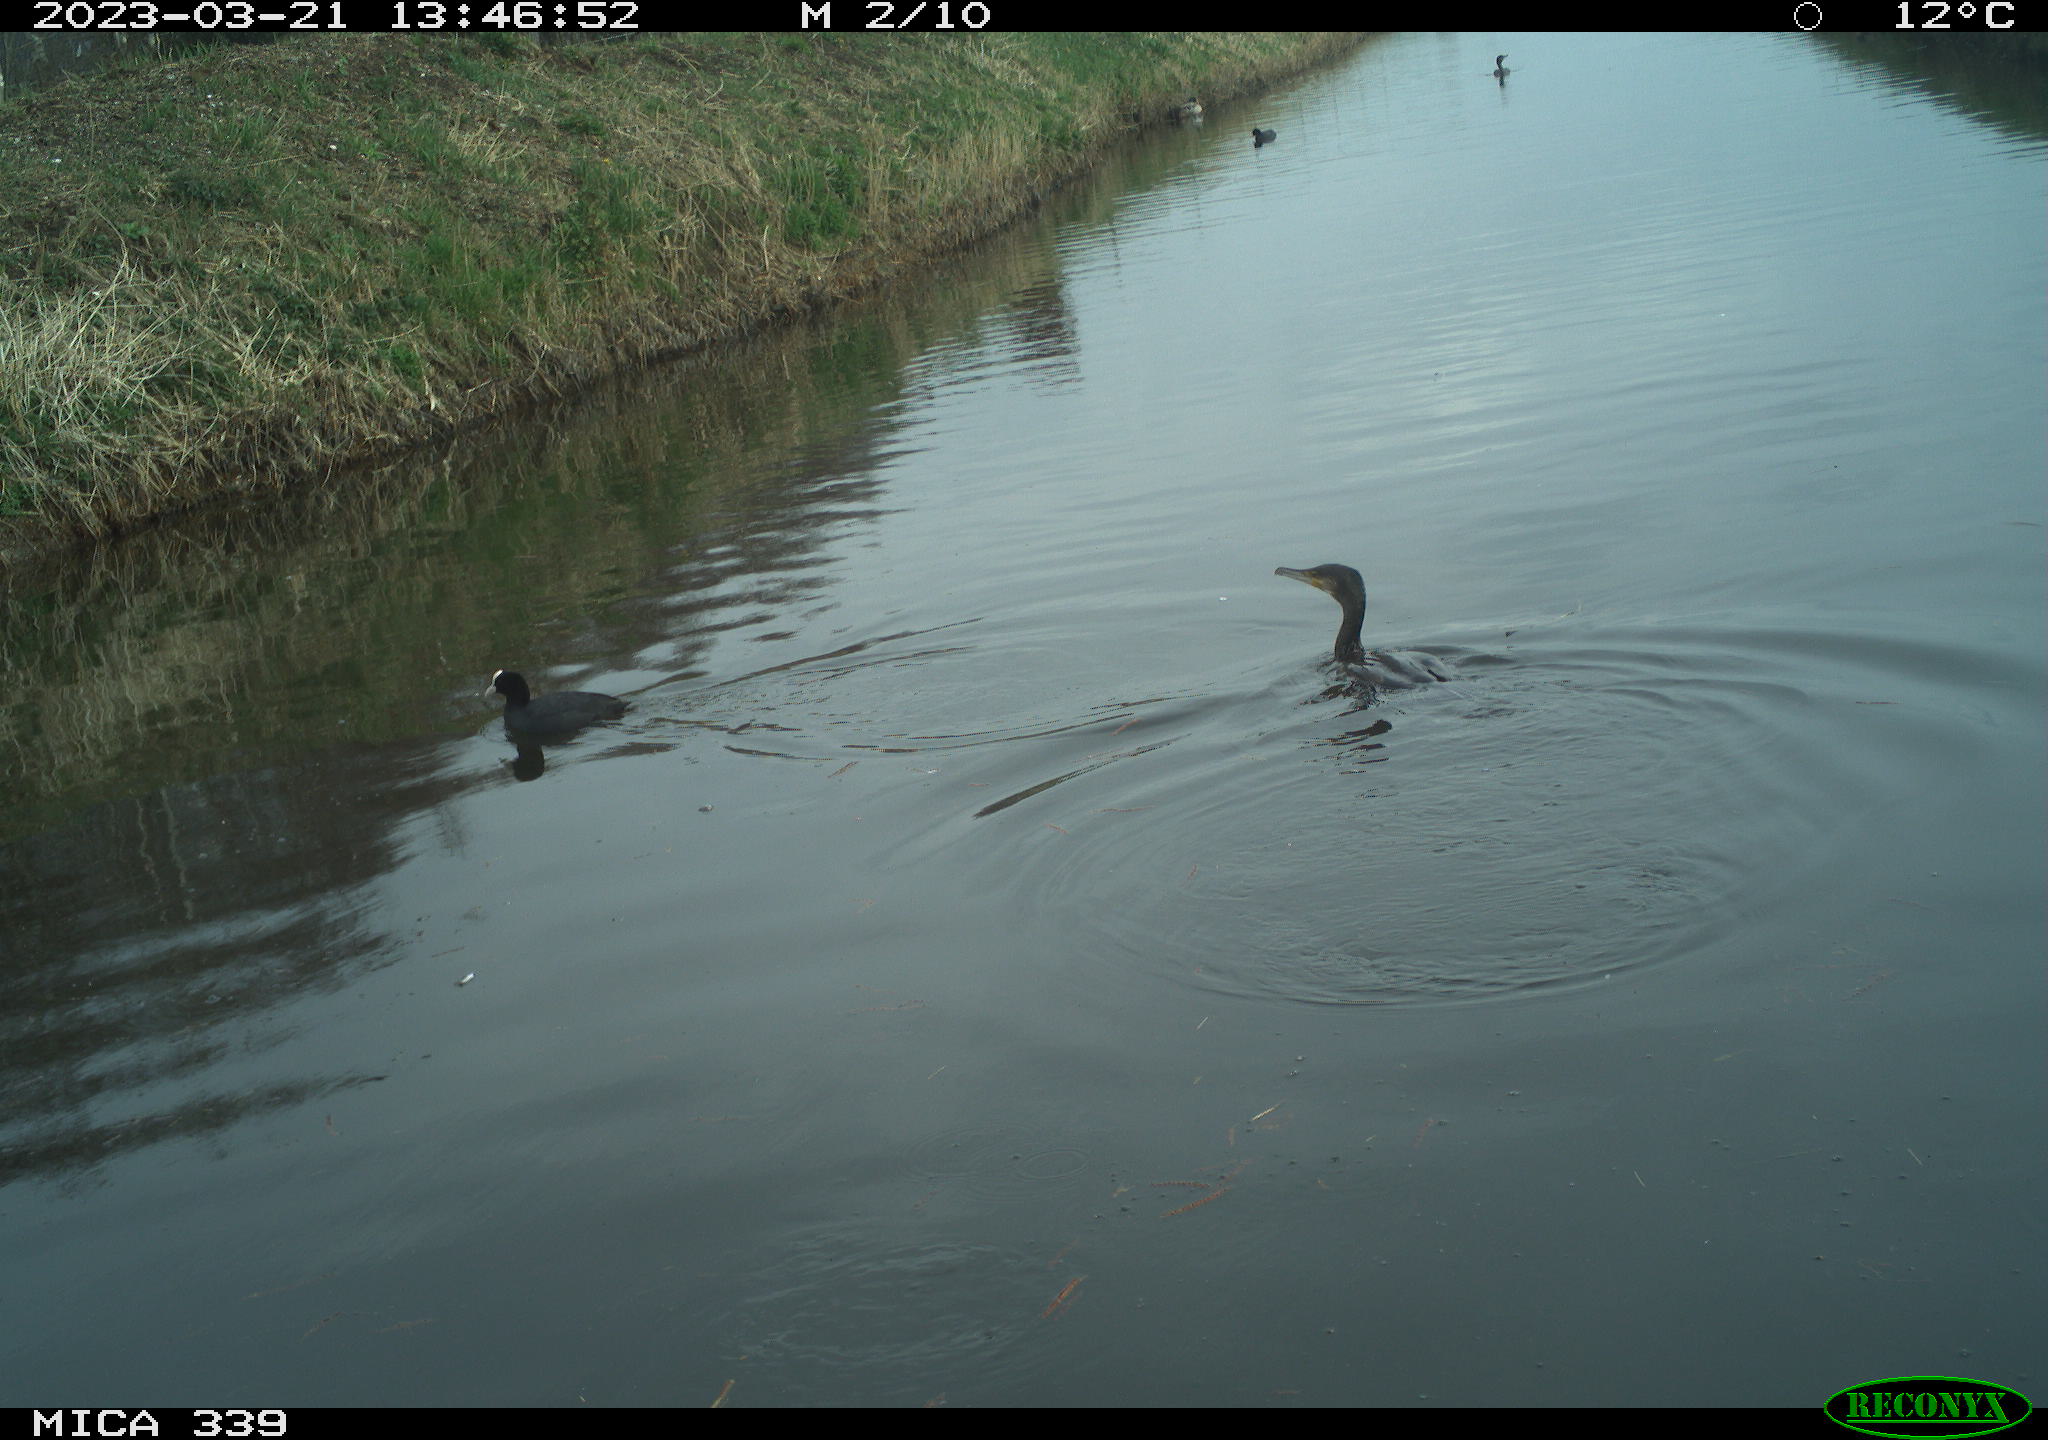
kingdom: Animalia
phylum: Chordata
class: Aves
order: Gruiformes
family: Rallidae
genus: Fulica
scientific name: Fulica atra
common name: Eurasian coot
